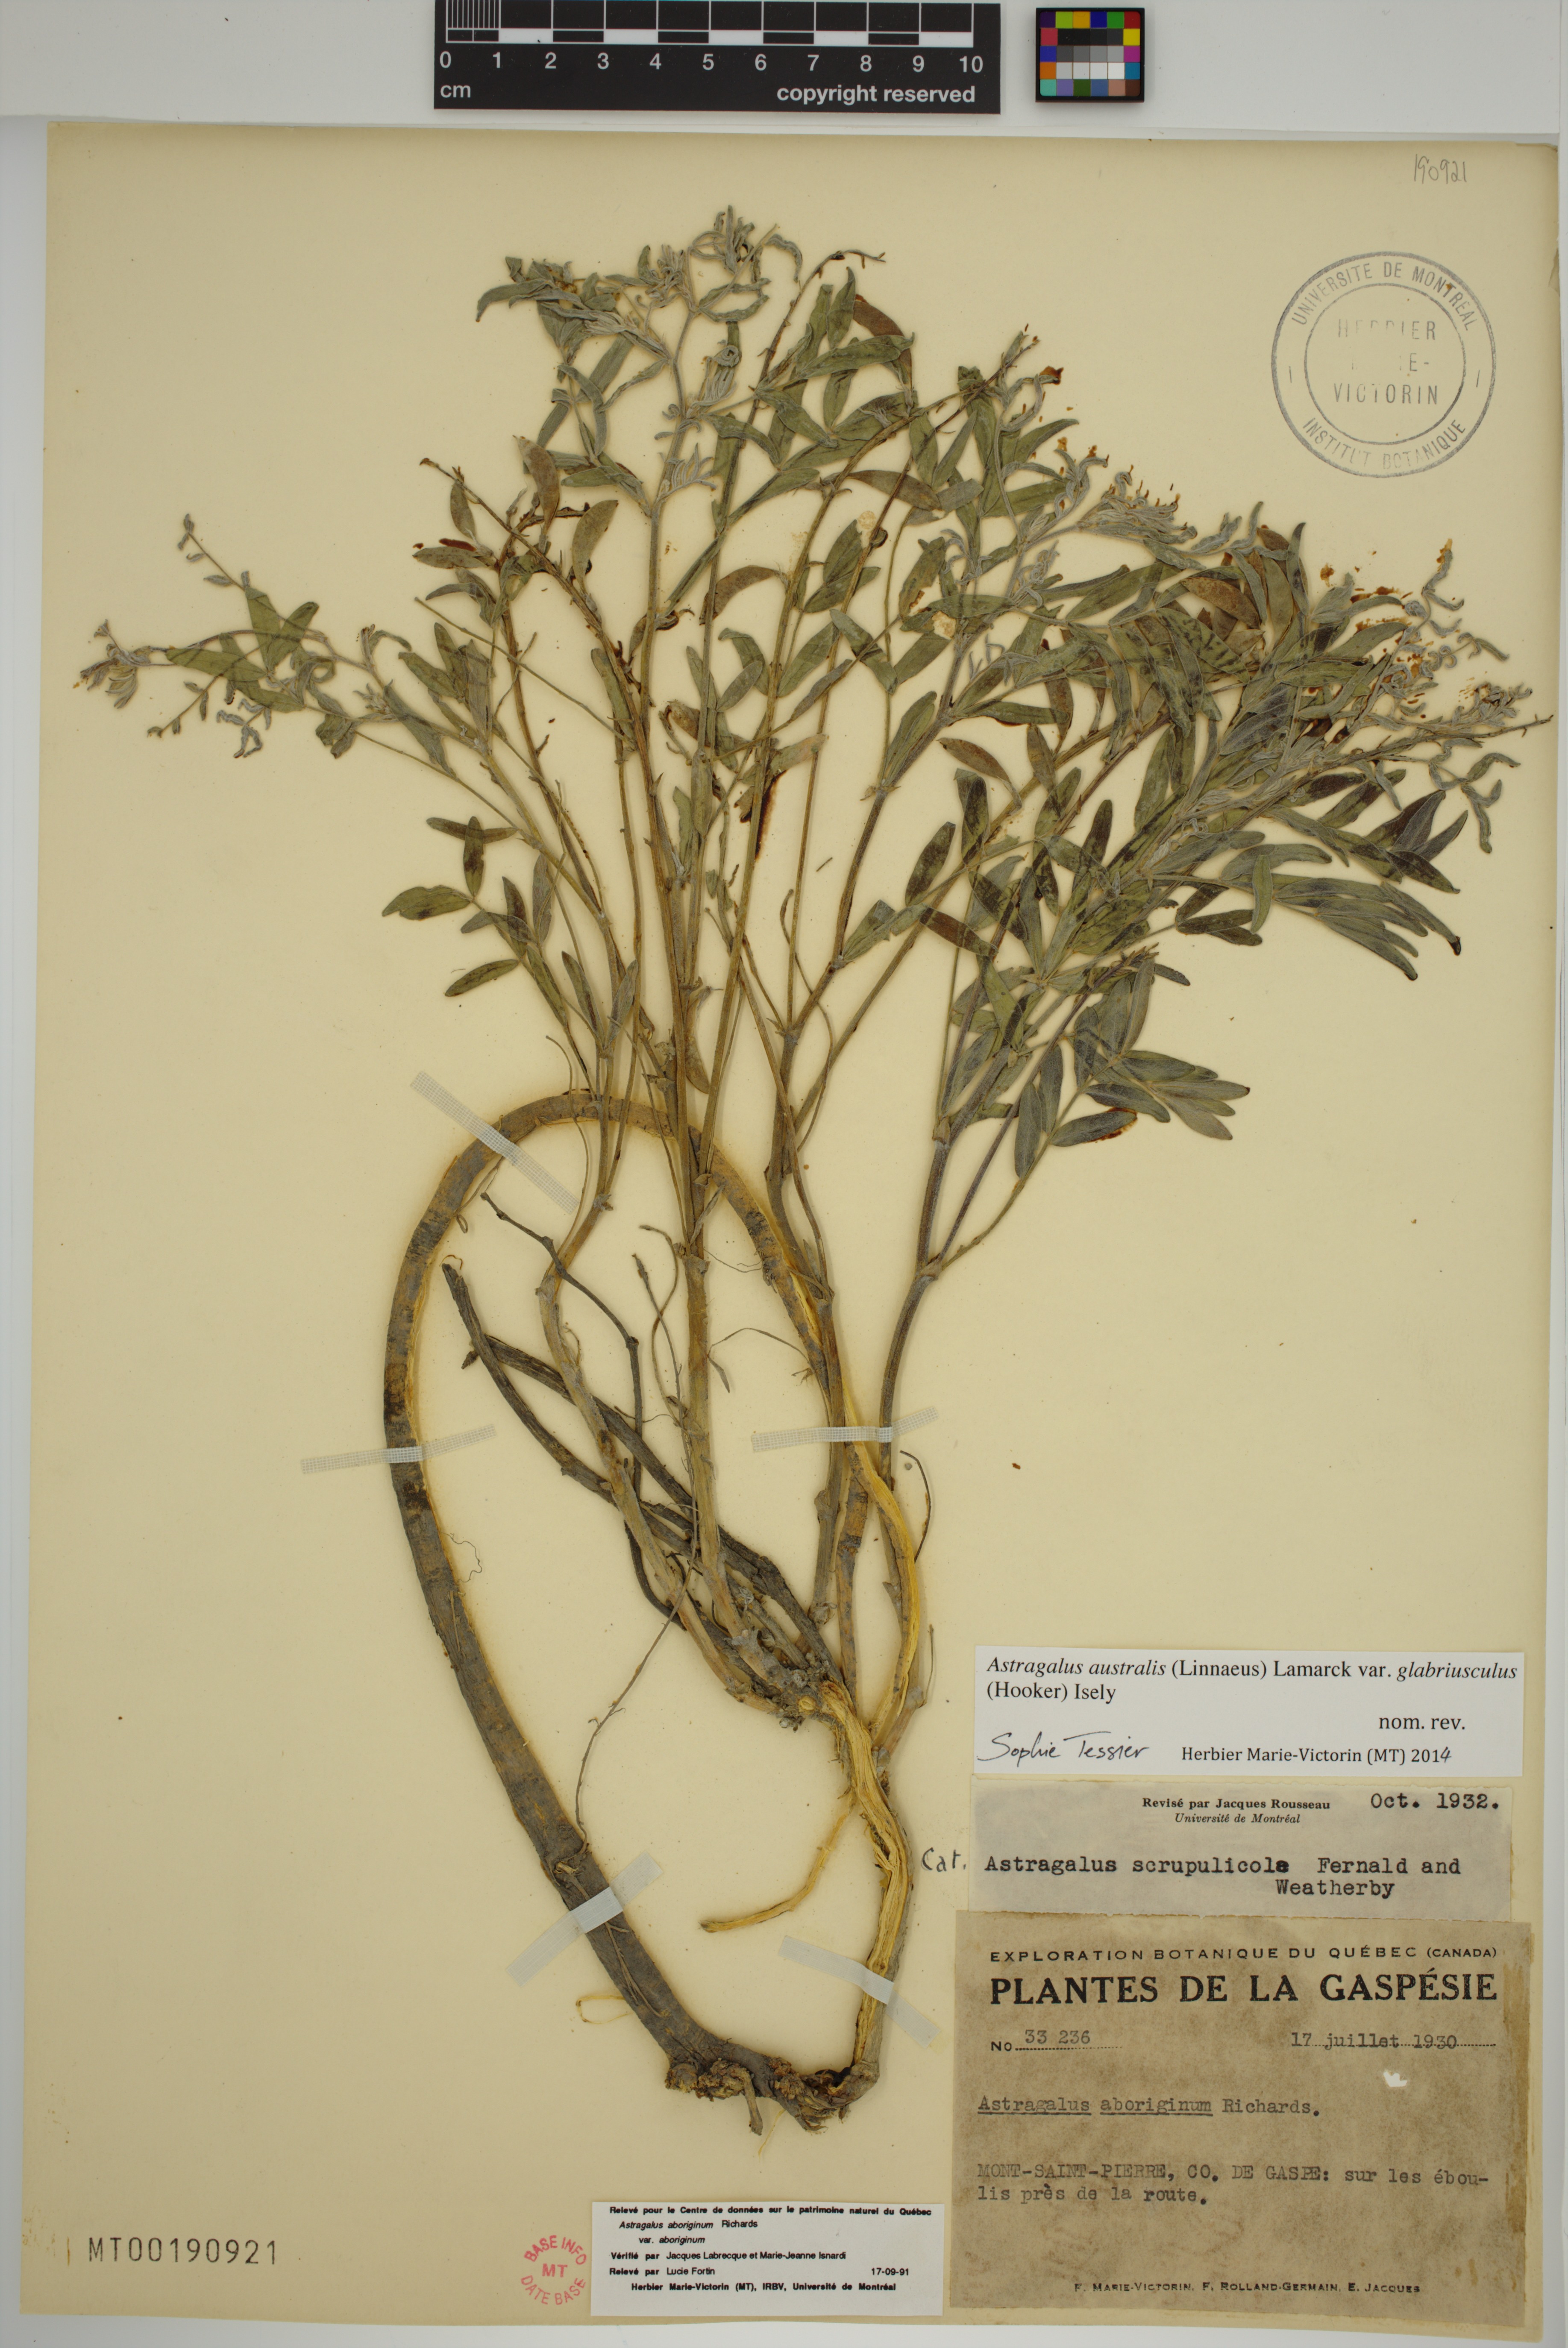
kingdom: Plantae
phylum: Tracheophyta
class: Magnoliopsida
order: Fabales
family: Fabaceae
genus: Astragalus
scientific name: Astragalus aboriginorum
